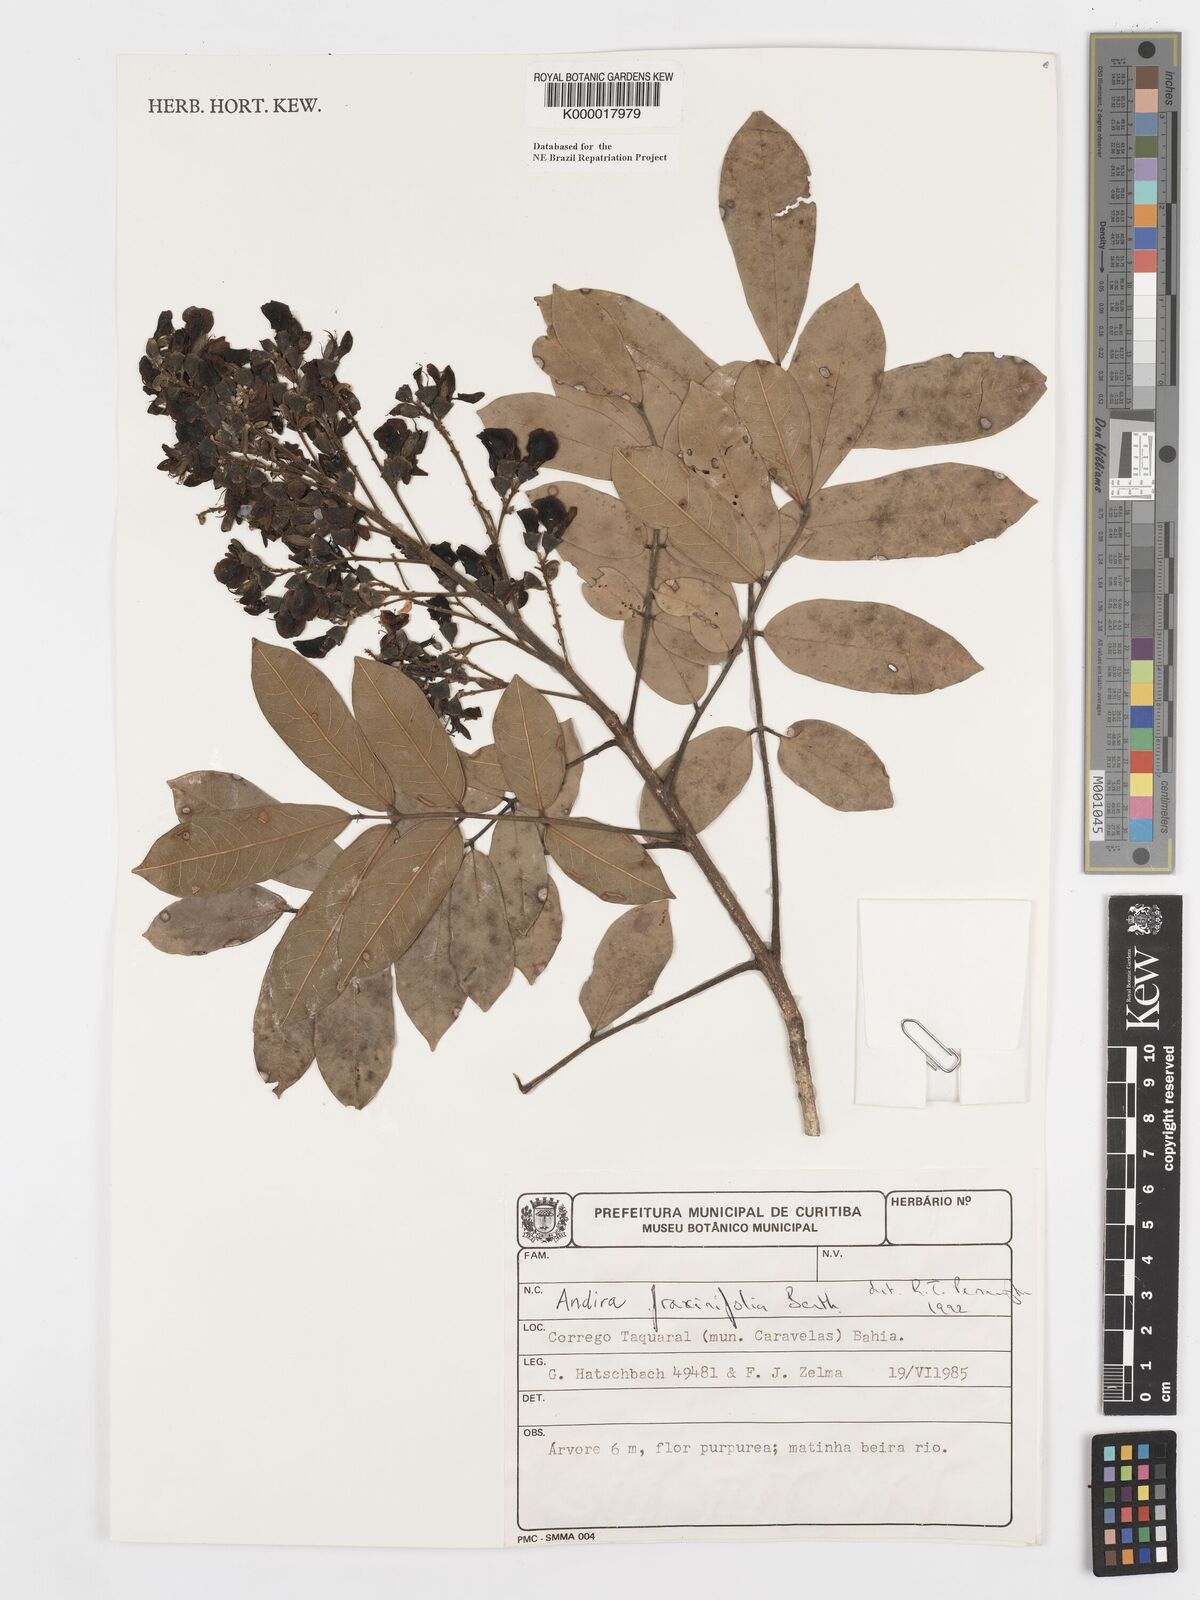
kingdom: Plantae
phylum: Tracheophyta
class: Magnoliopsida
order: Fabales
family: Fabaceae
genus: Andira
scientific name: Andira fraxinifolia
